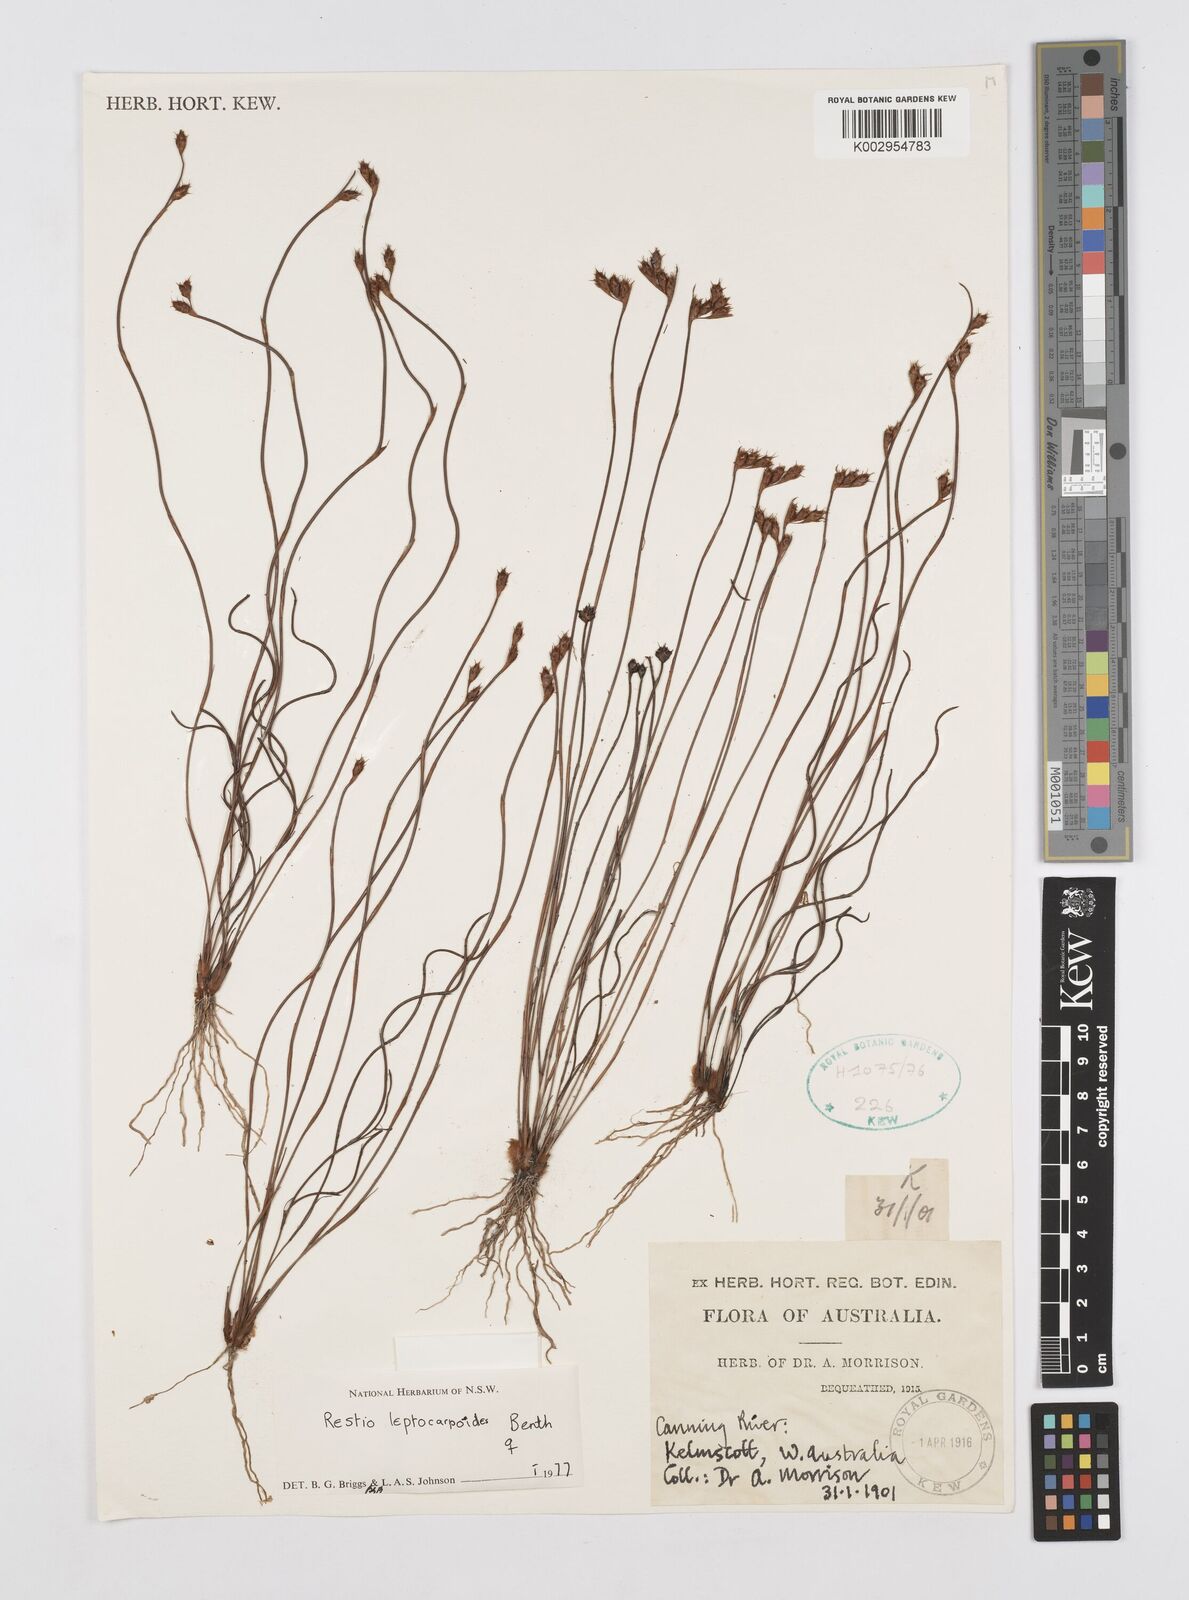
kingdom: Plantae
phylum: Tracheophyta
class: Liliopsida
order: Poales
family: Restionaceae
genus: Cytogonidium
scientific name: Cytogonidium leptocarpoides
